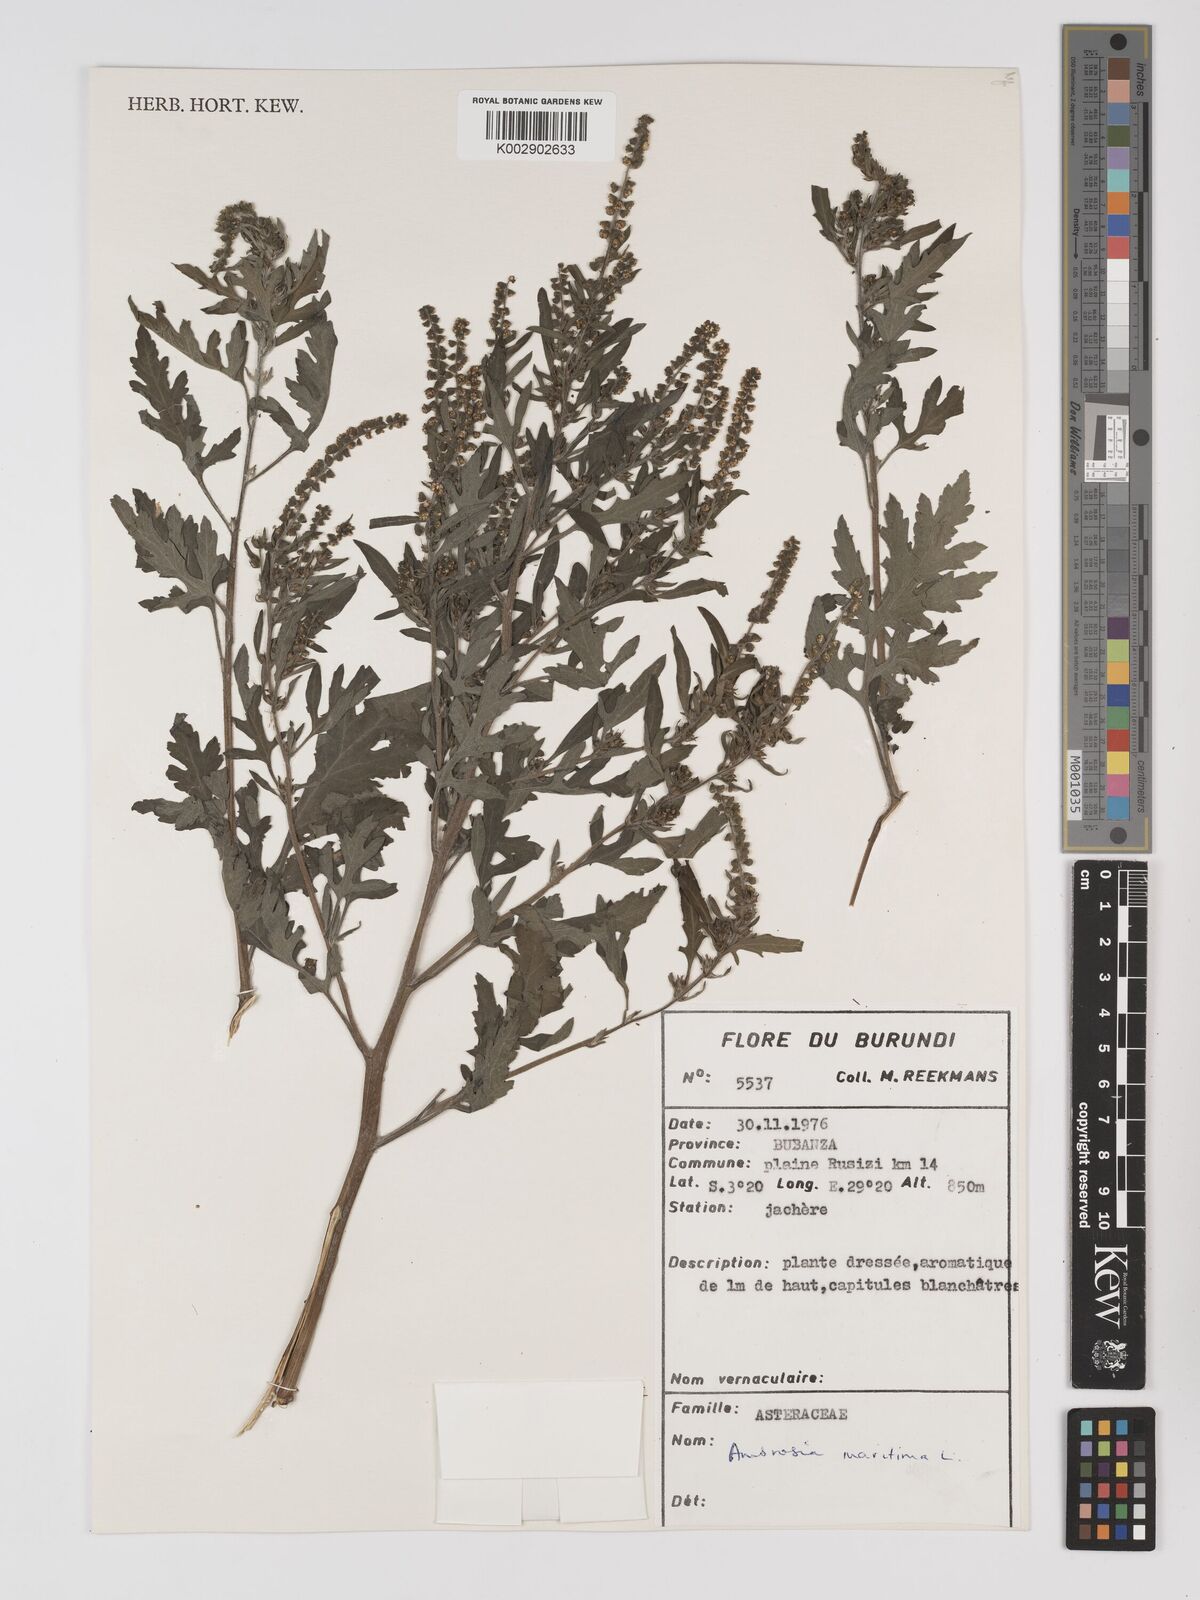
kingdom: Plantae
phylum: Tracheophyta
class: Magnoliopsida
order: Asterales
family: Asteraceae
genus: Ambrosia
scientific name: Ambrosia maritima
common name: Sea ambrosia
